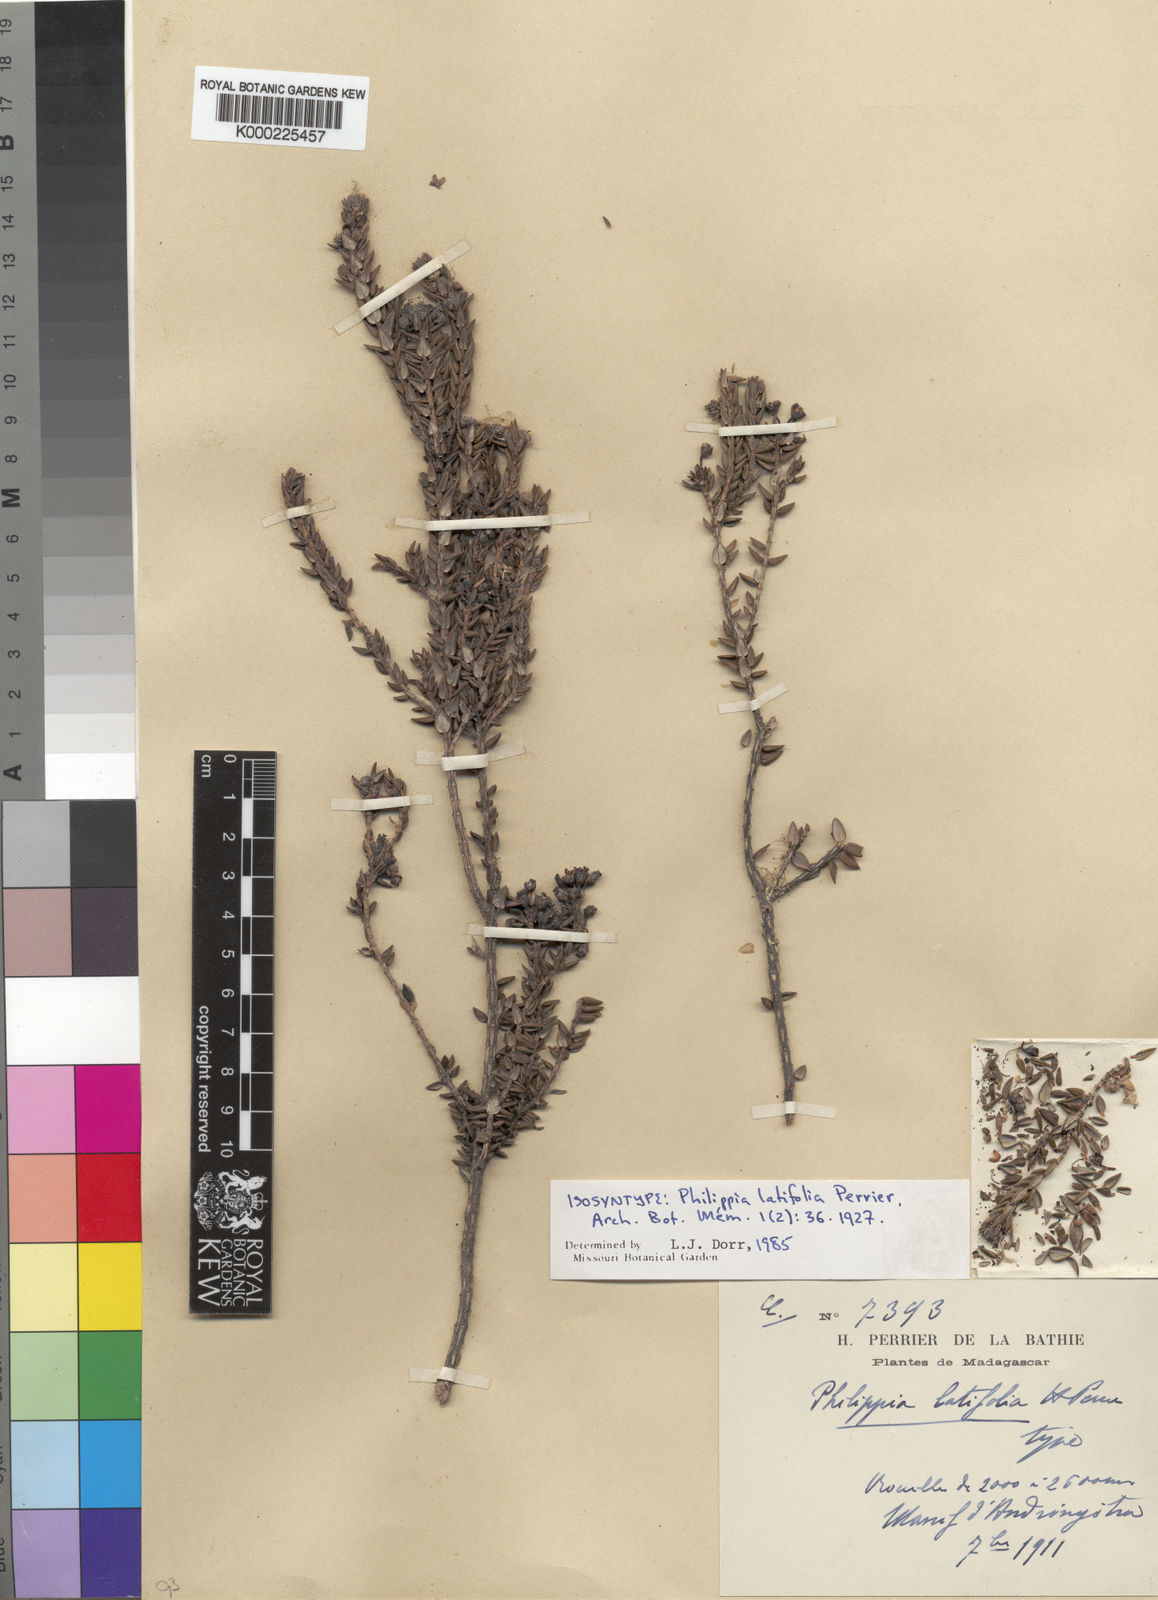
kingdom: Plantae
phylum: Tracheophyta
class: Magnoliopsida
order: Ericales
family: Ericaceae
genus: Erica
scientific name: Erica perrieri
